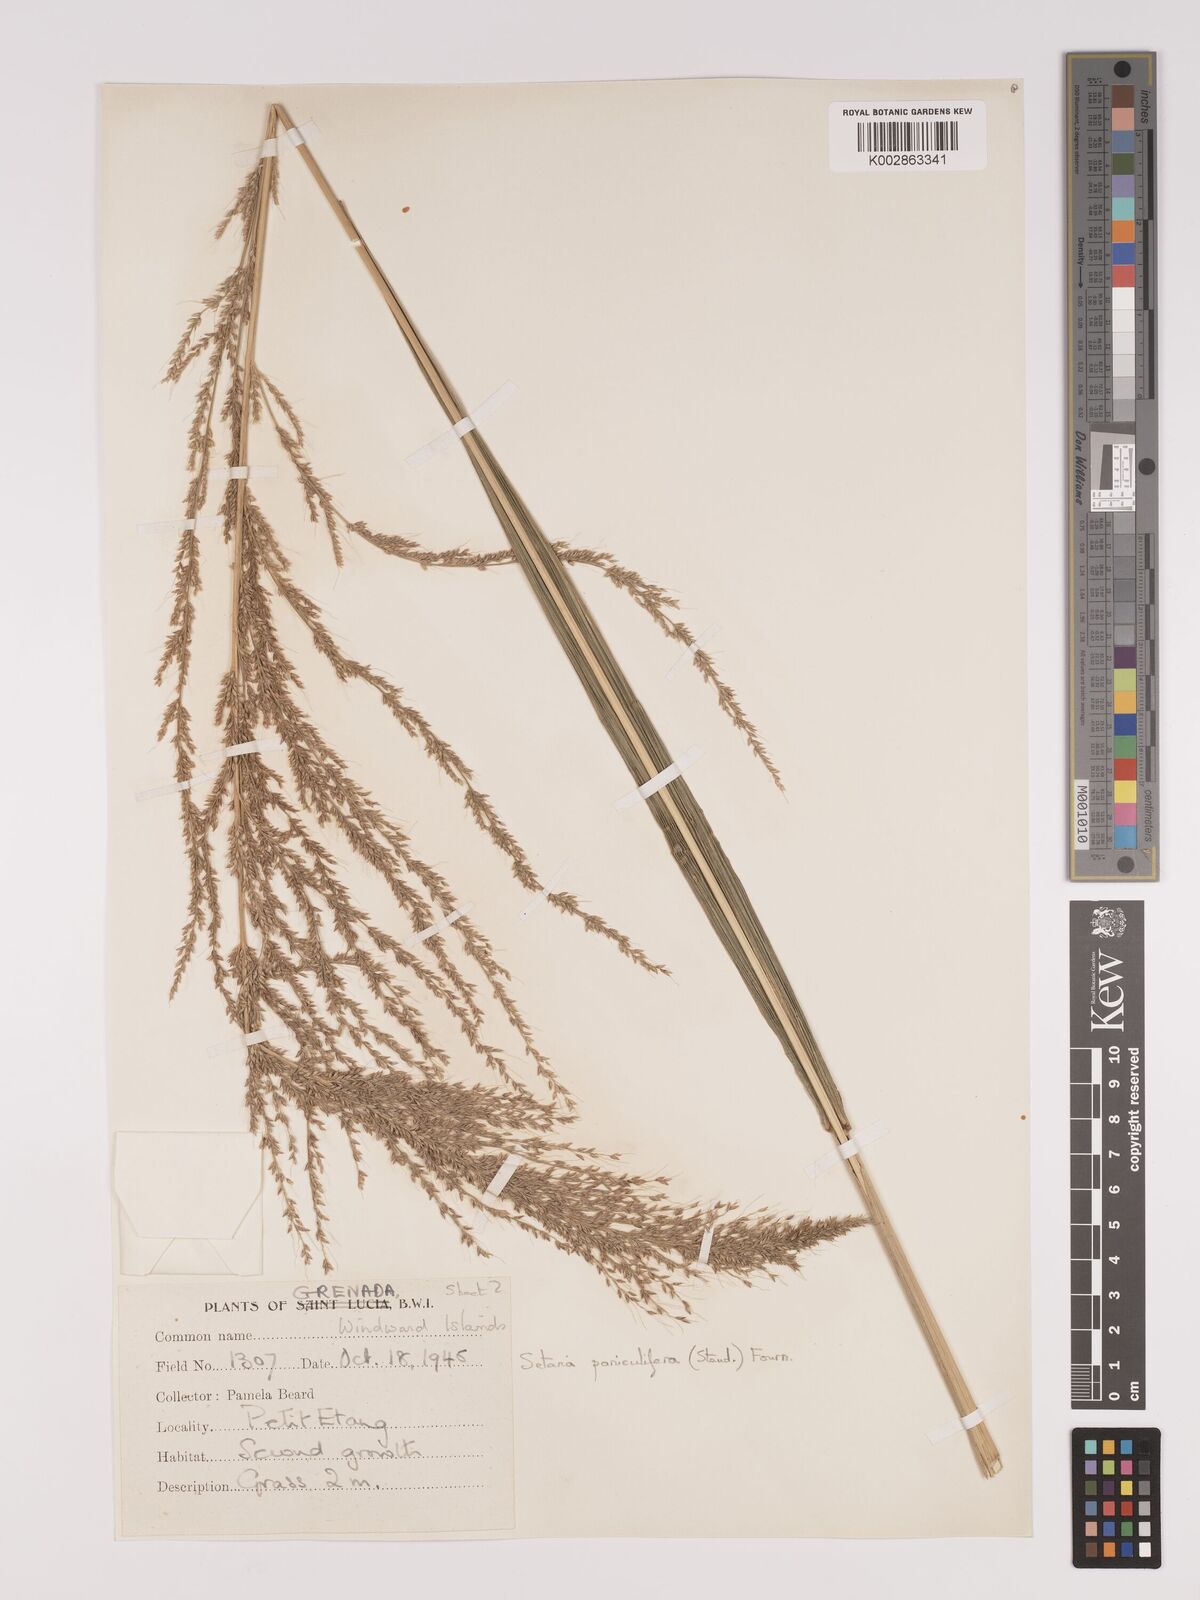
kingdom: Plantae
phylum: Tracheophyta
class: Liliopsida
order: Poales
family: Poaceae
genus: Setaria
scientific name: Setaria palmifolia
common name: Broadleaved bristlegrass
